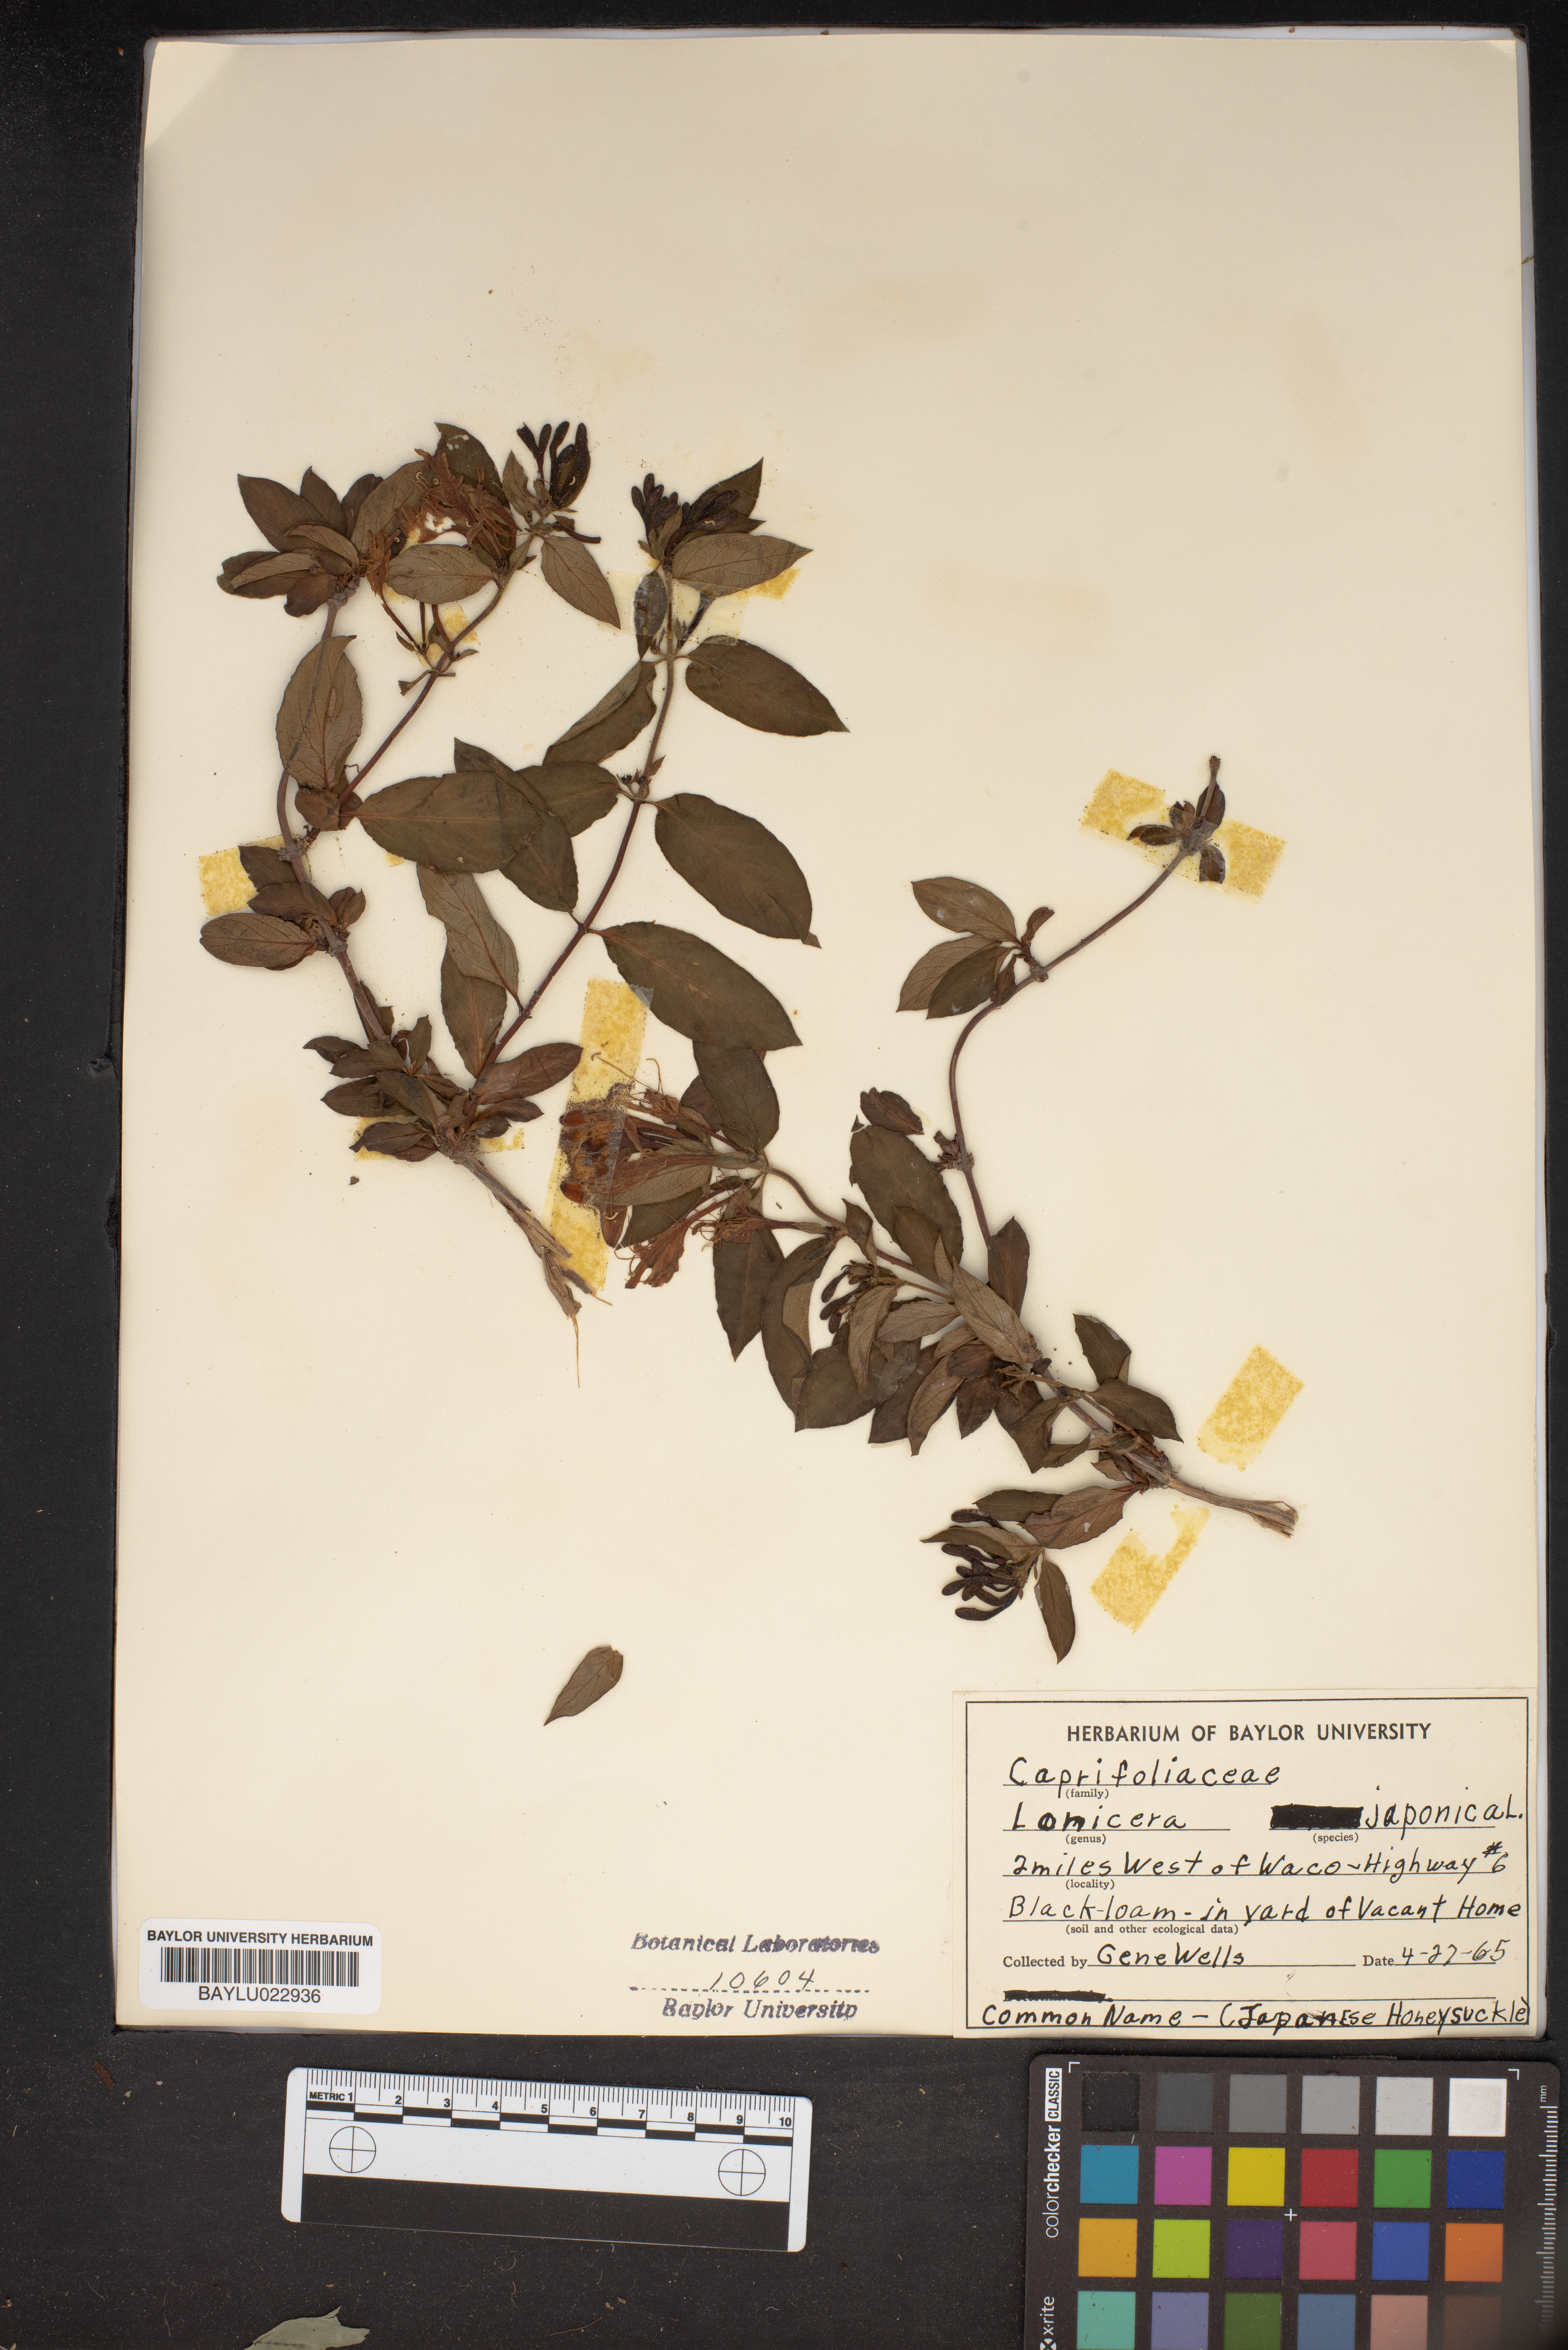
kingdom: Plantae
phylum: Tracheophyta
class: Magnoliopsida
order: Dipsacales
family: Caprifoliaceae
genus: Lonicera
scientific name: Lonicera japonica
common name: Japanese honeysuckle
